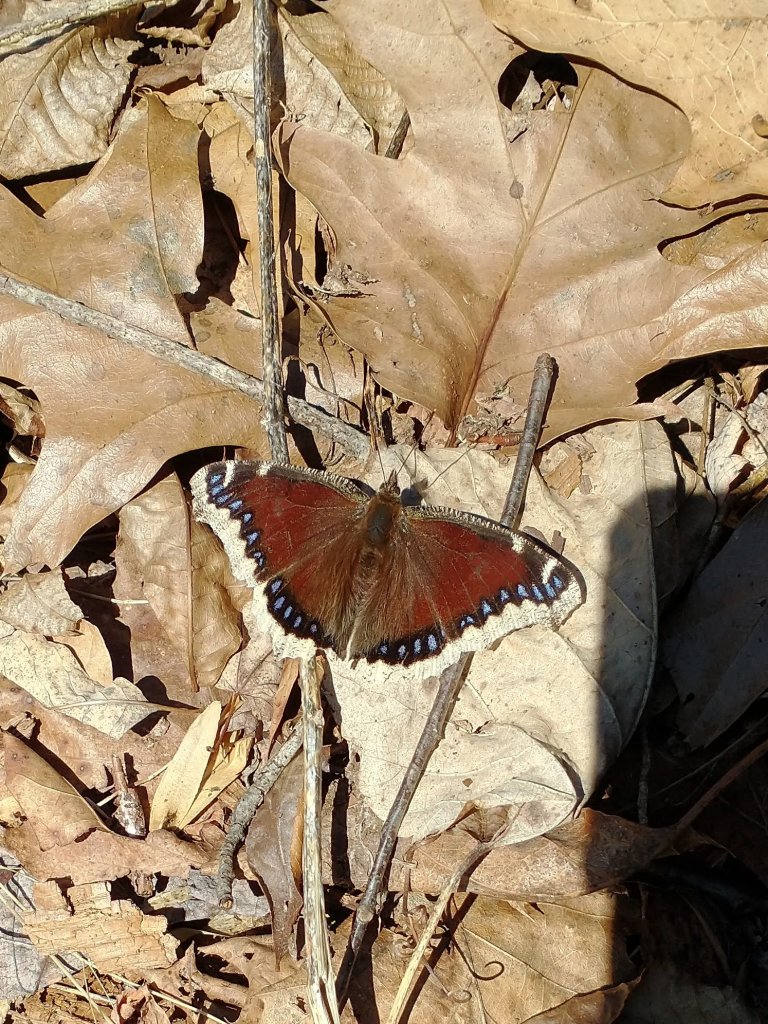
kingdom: Animalia
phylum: Arthropoda
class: Insecta
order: Lepidoptera
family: Nymphalidae
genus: Nymphalis
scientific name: Nymphalis antiopa
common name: Mourning Cloak
